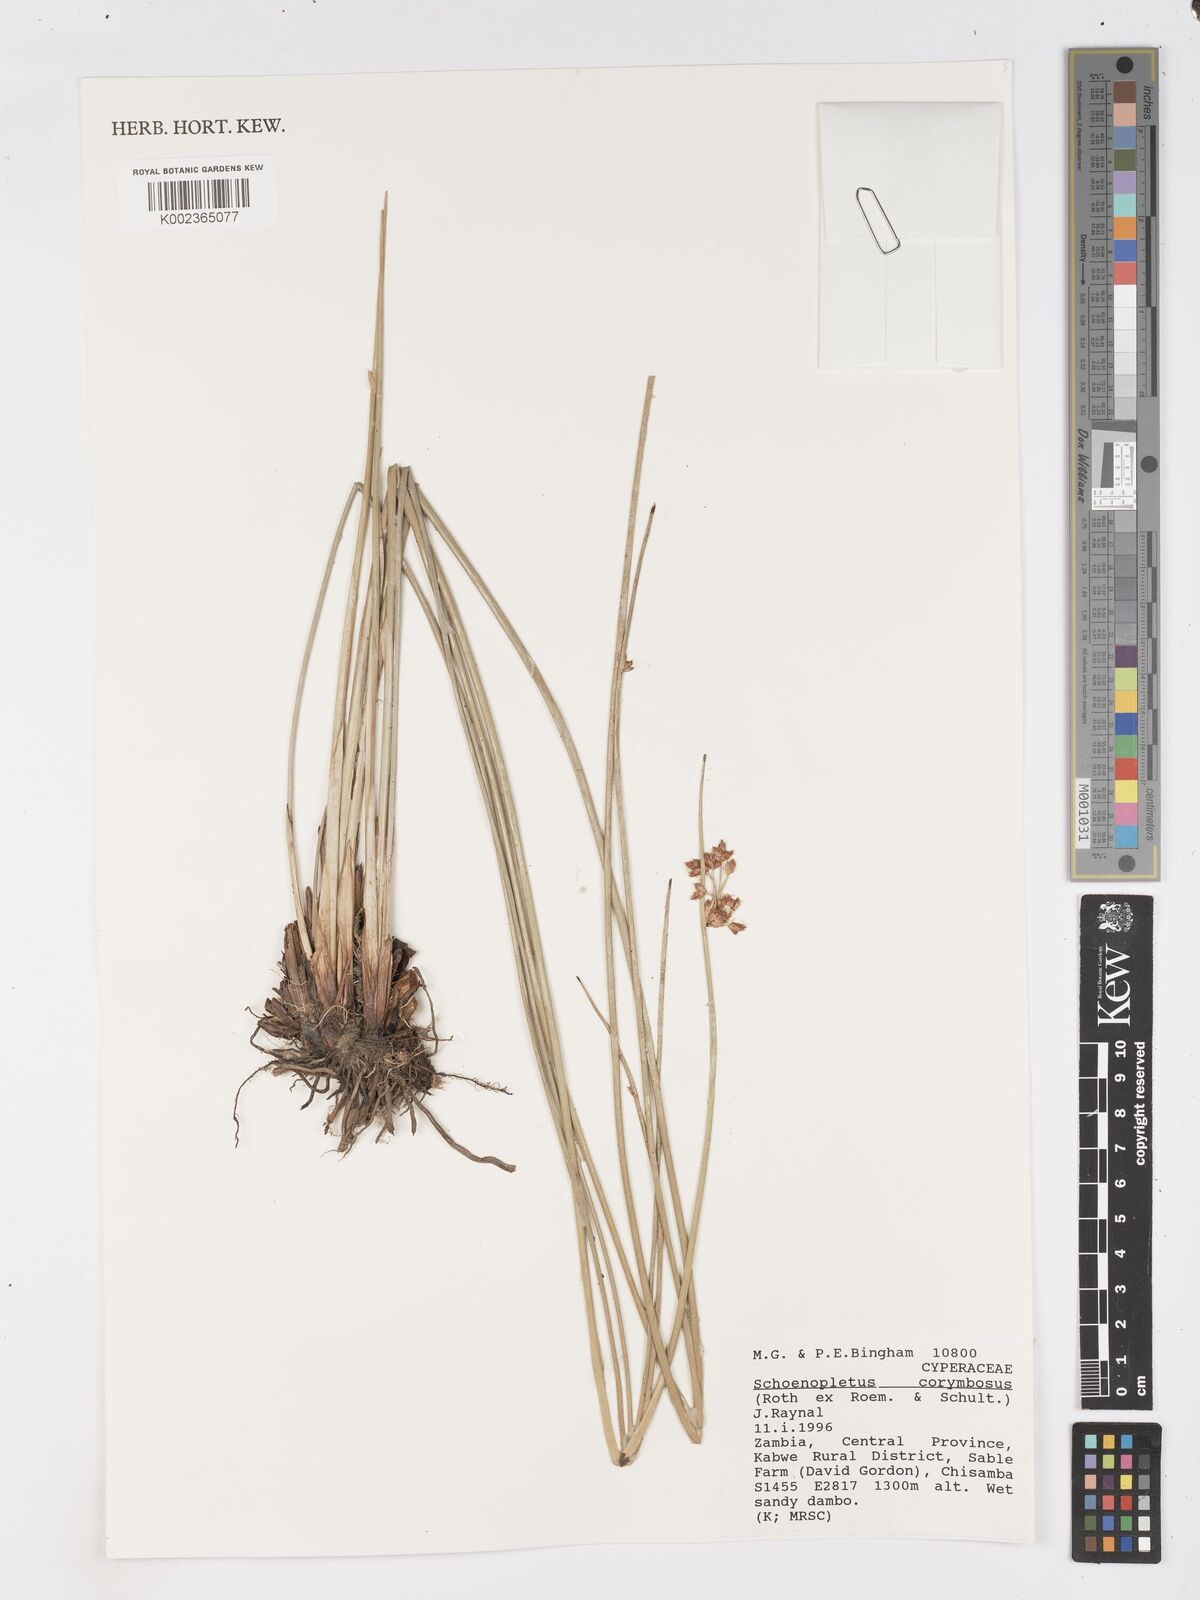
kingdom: Plantae
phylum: Tracheophyta
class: Liliopsida
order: Poales
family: Cyperaceae
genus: Schoenoplectiella
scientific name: Schoenoplectiella corymbosa
